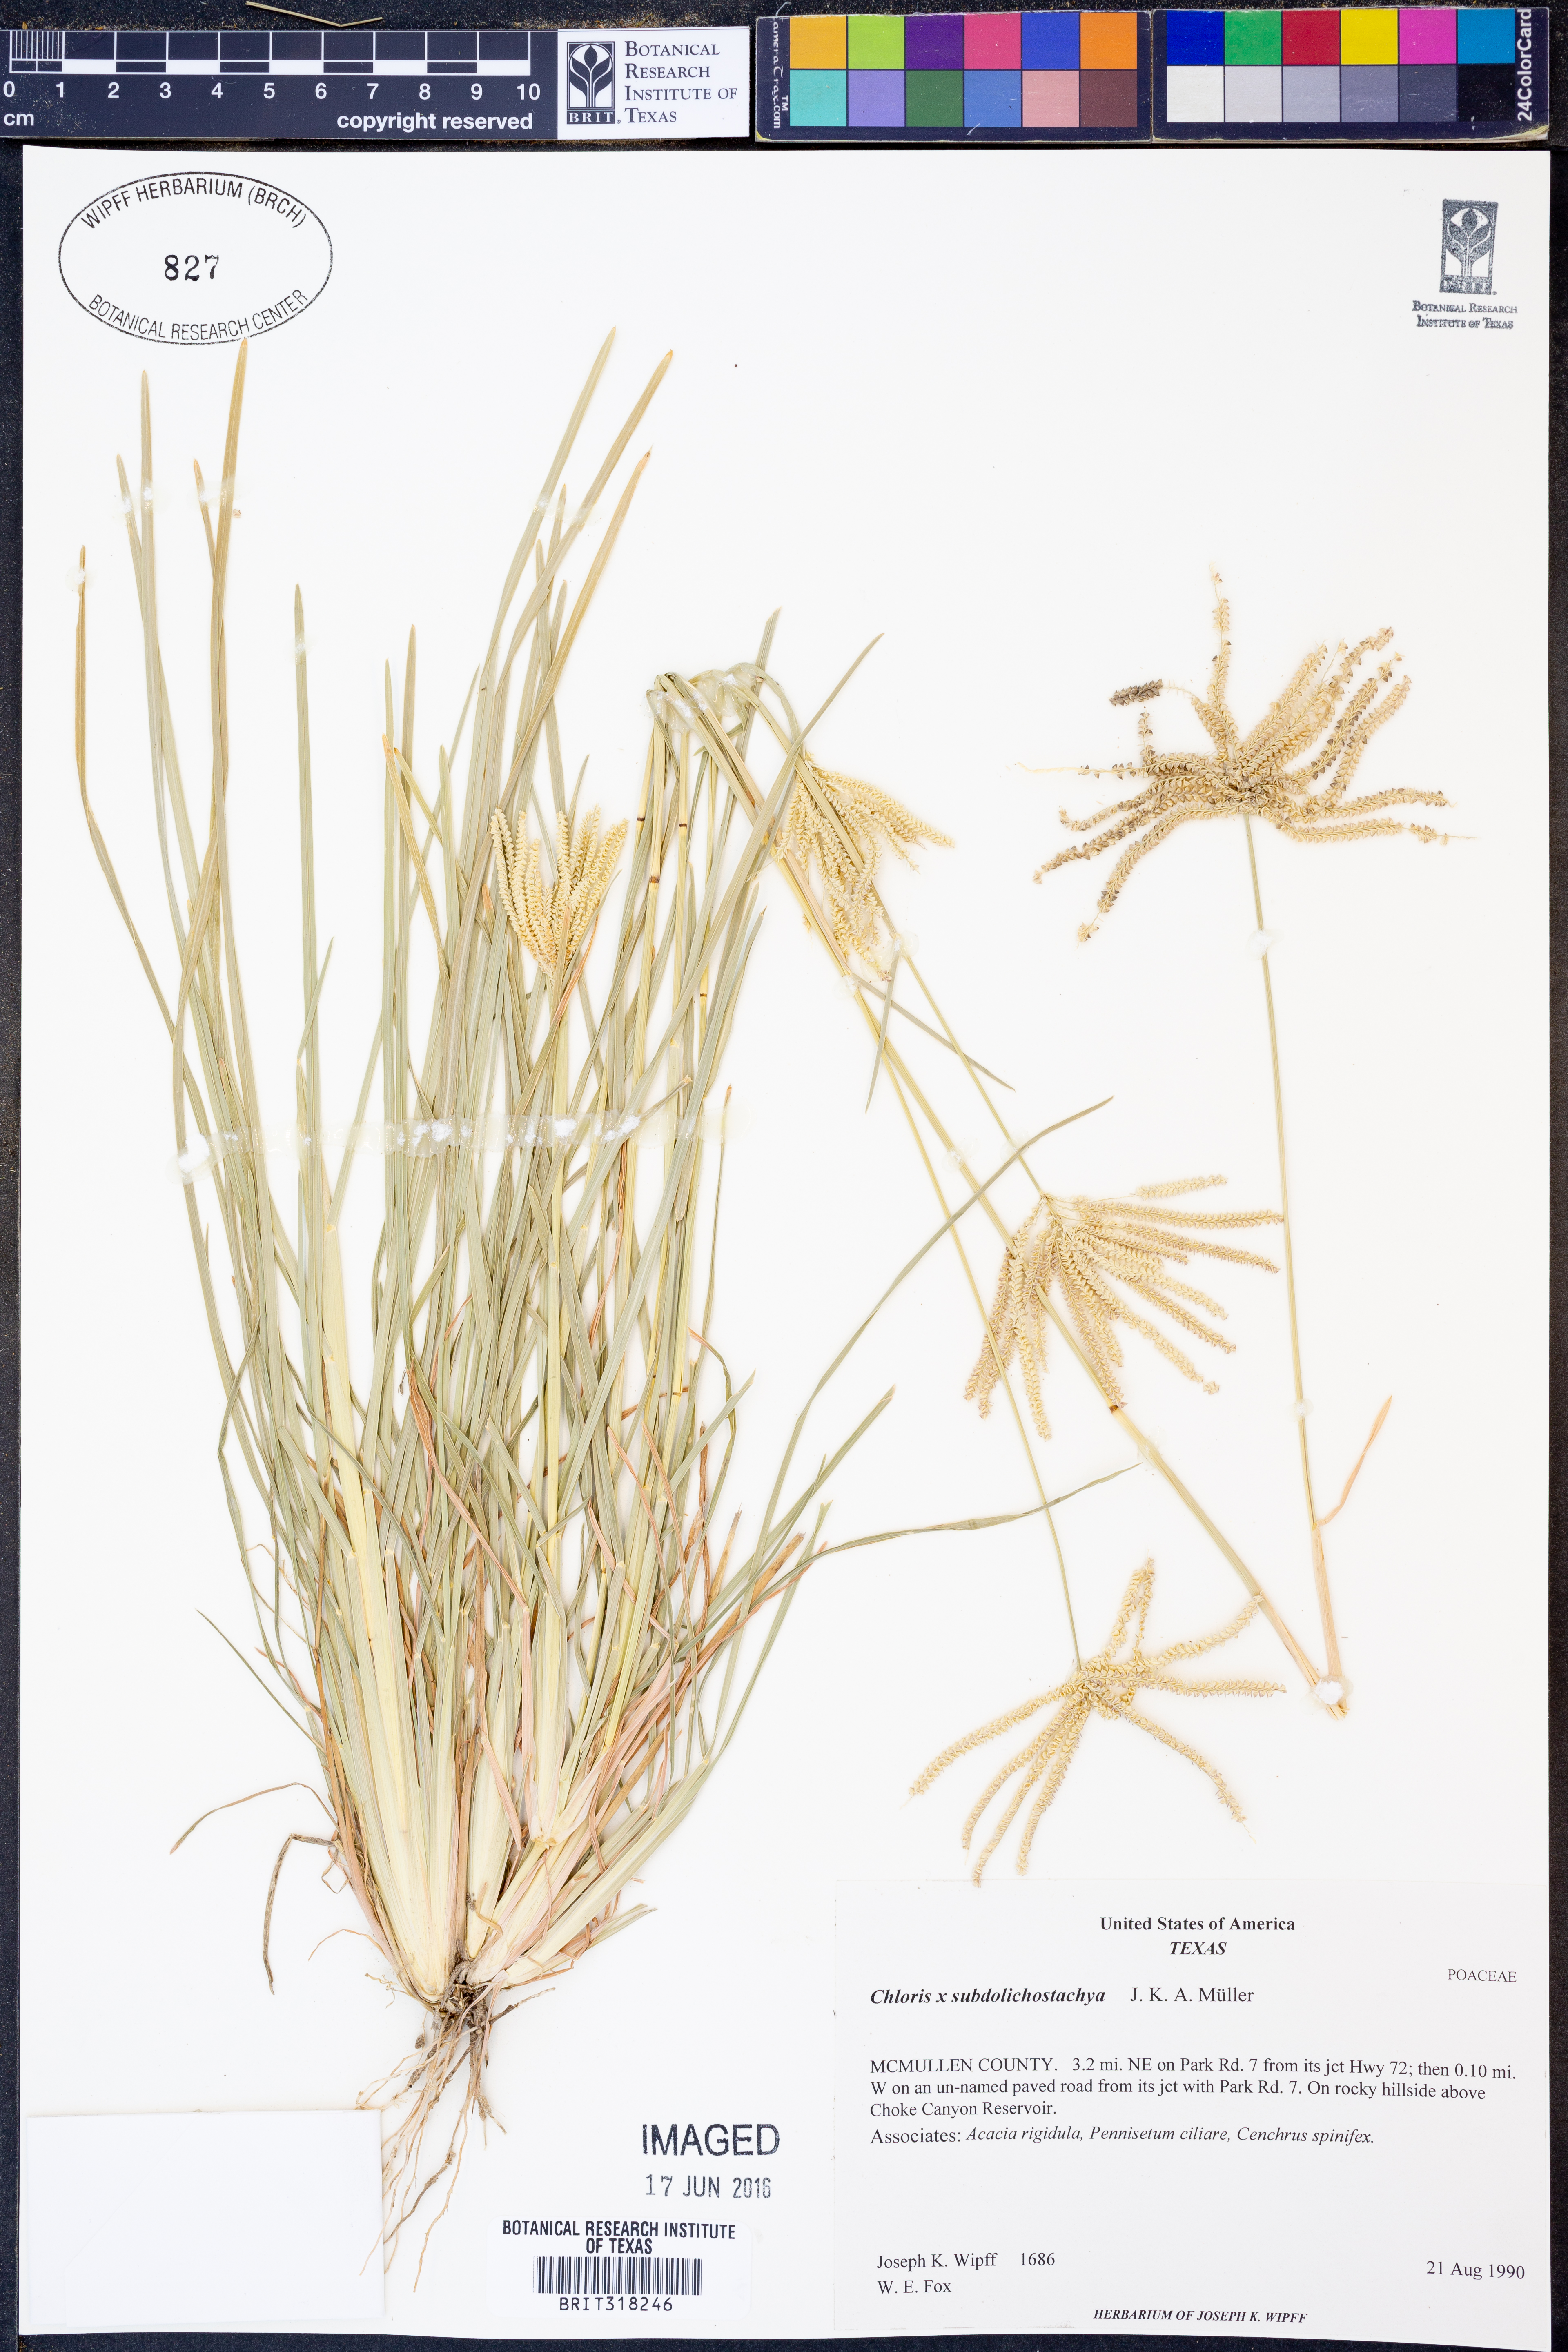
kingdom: Plantae
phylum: Tracheophyta
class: Liliopsida
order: Poales
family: Poaceae
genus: Chloris
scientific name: Chloris subdolichostachya
